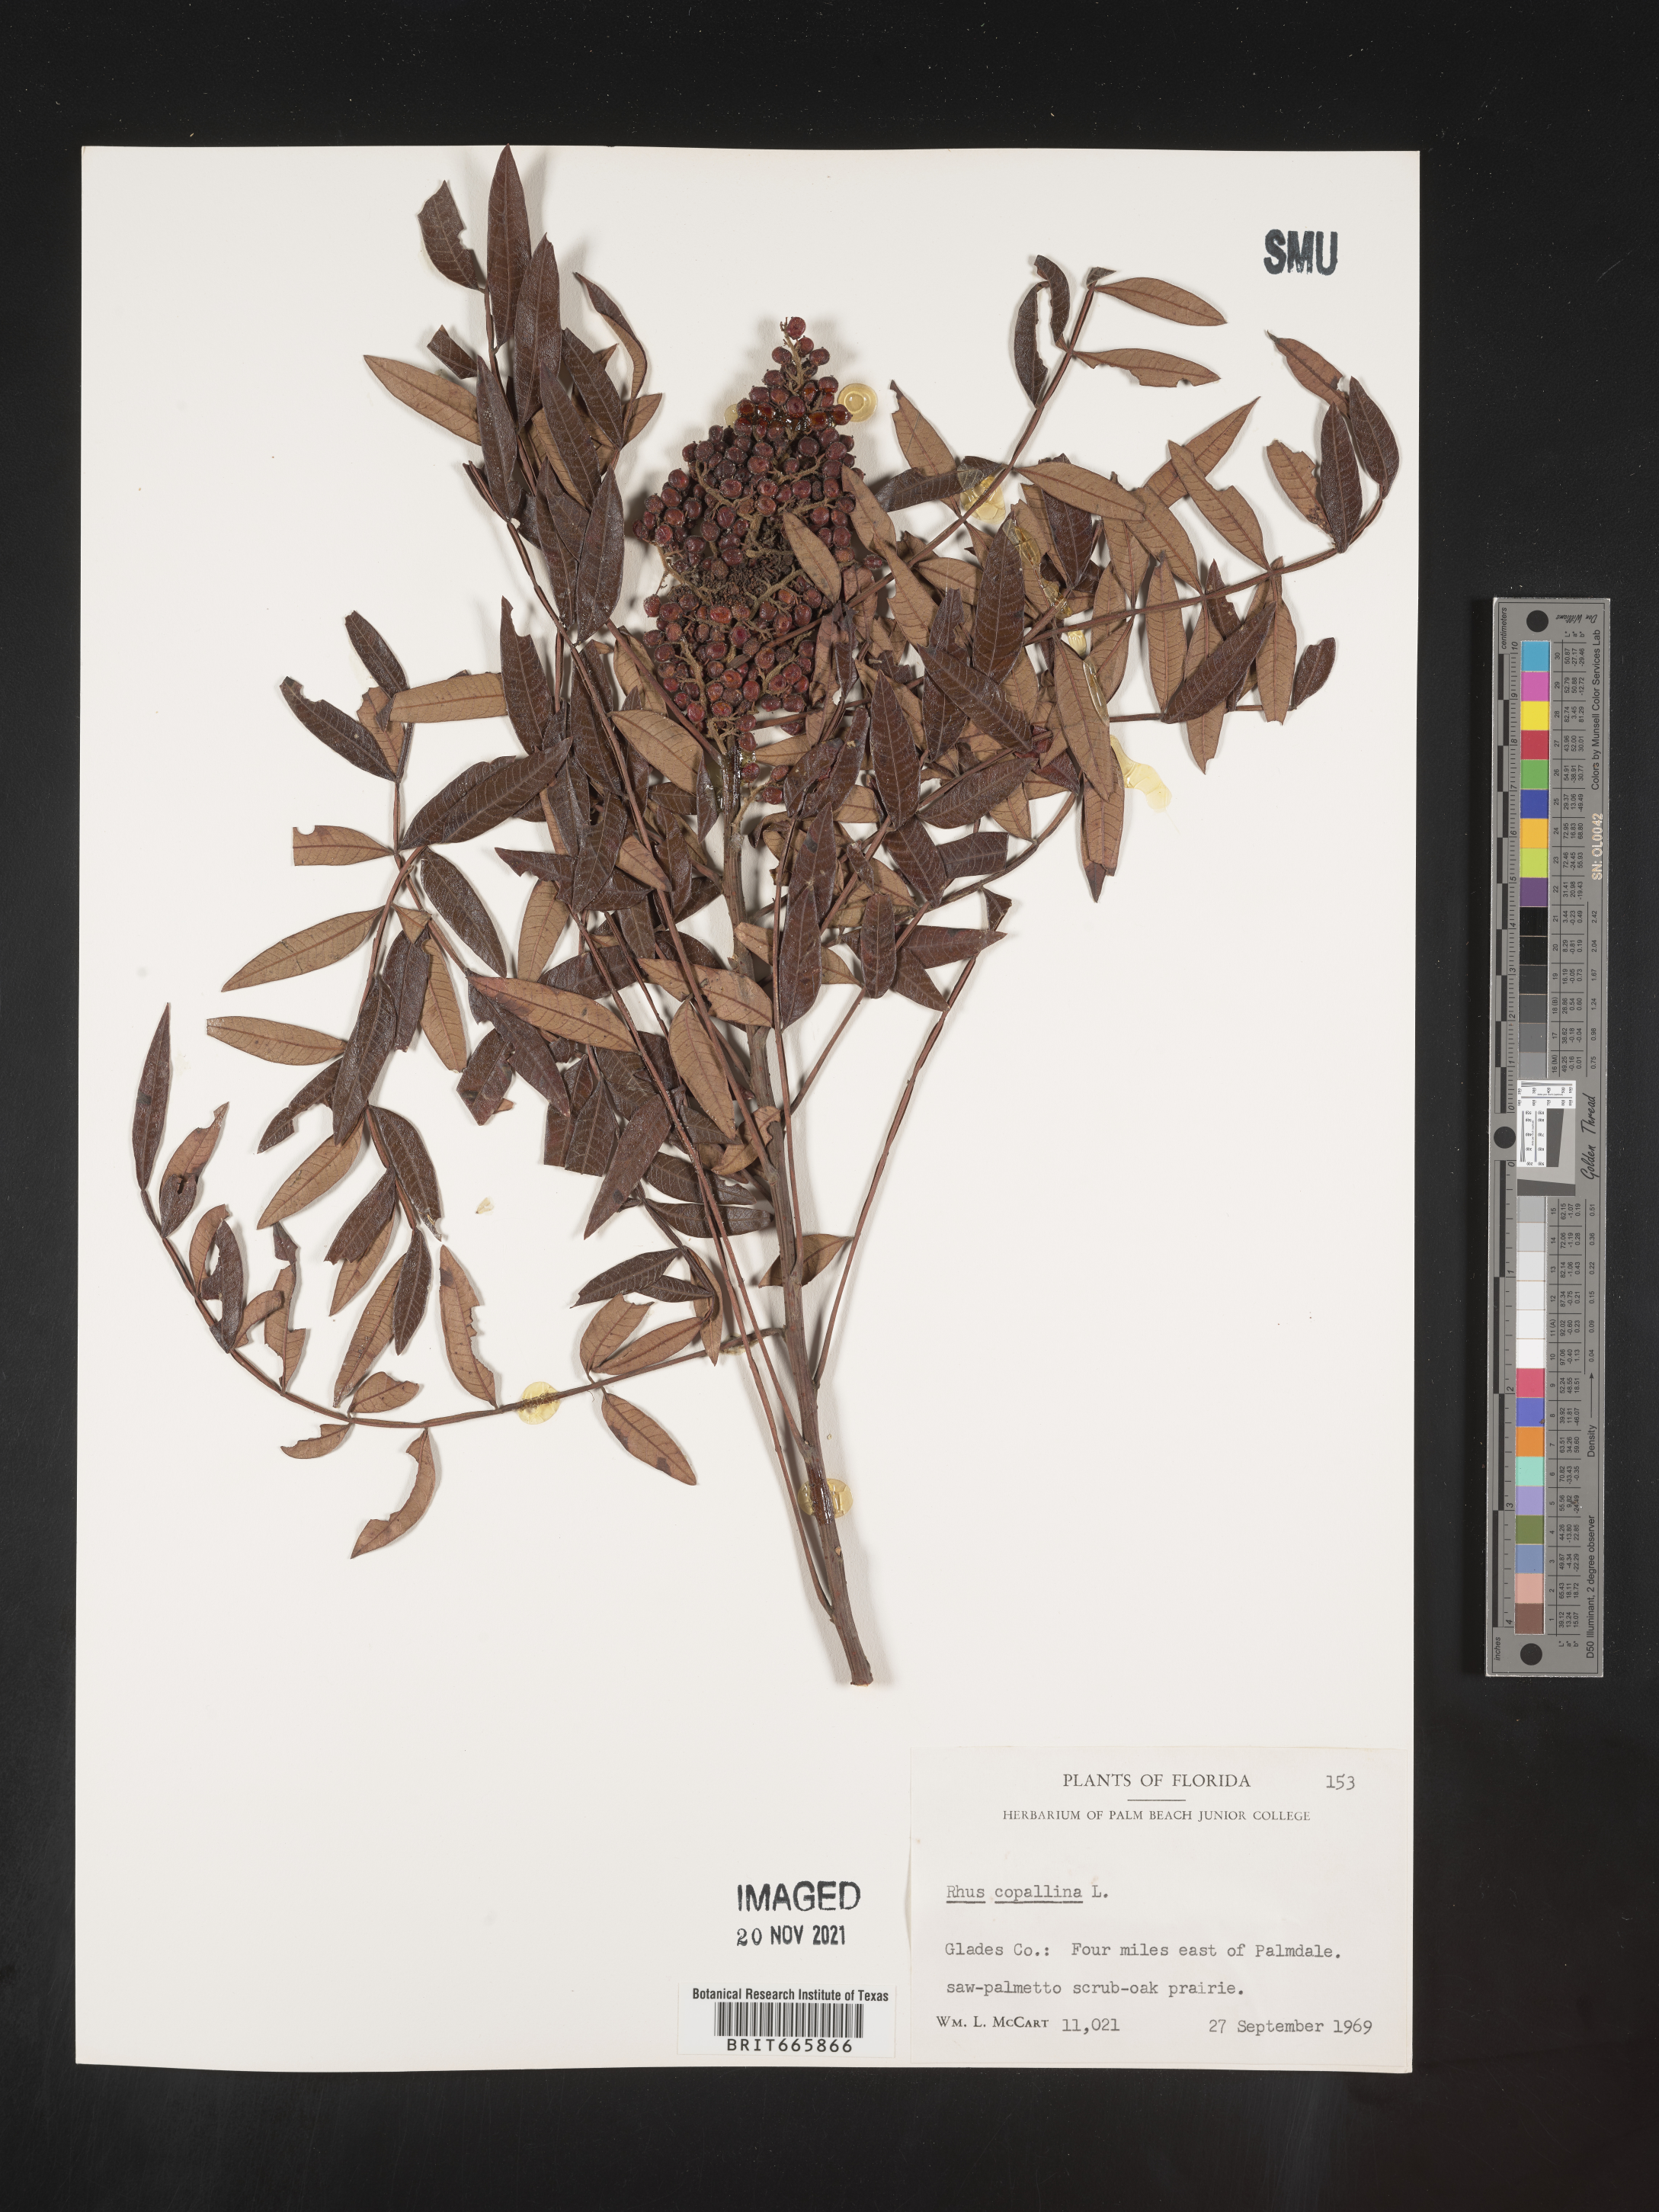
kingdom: Plantae
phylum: Tracheophyta
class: Magnoliopsida
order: Sapindales
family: Anacardiaceae
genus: Rhus
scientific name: Rhus copallina
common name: Shining sumac
